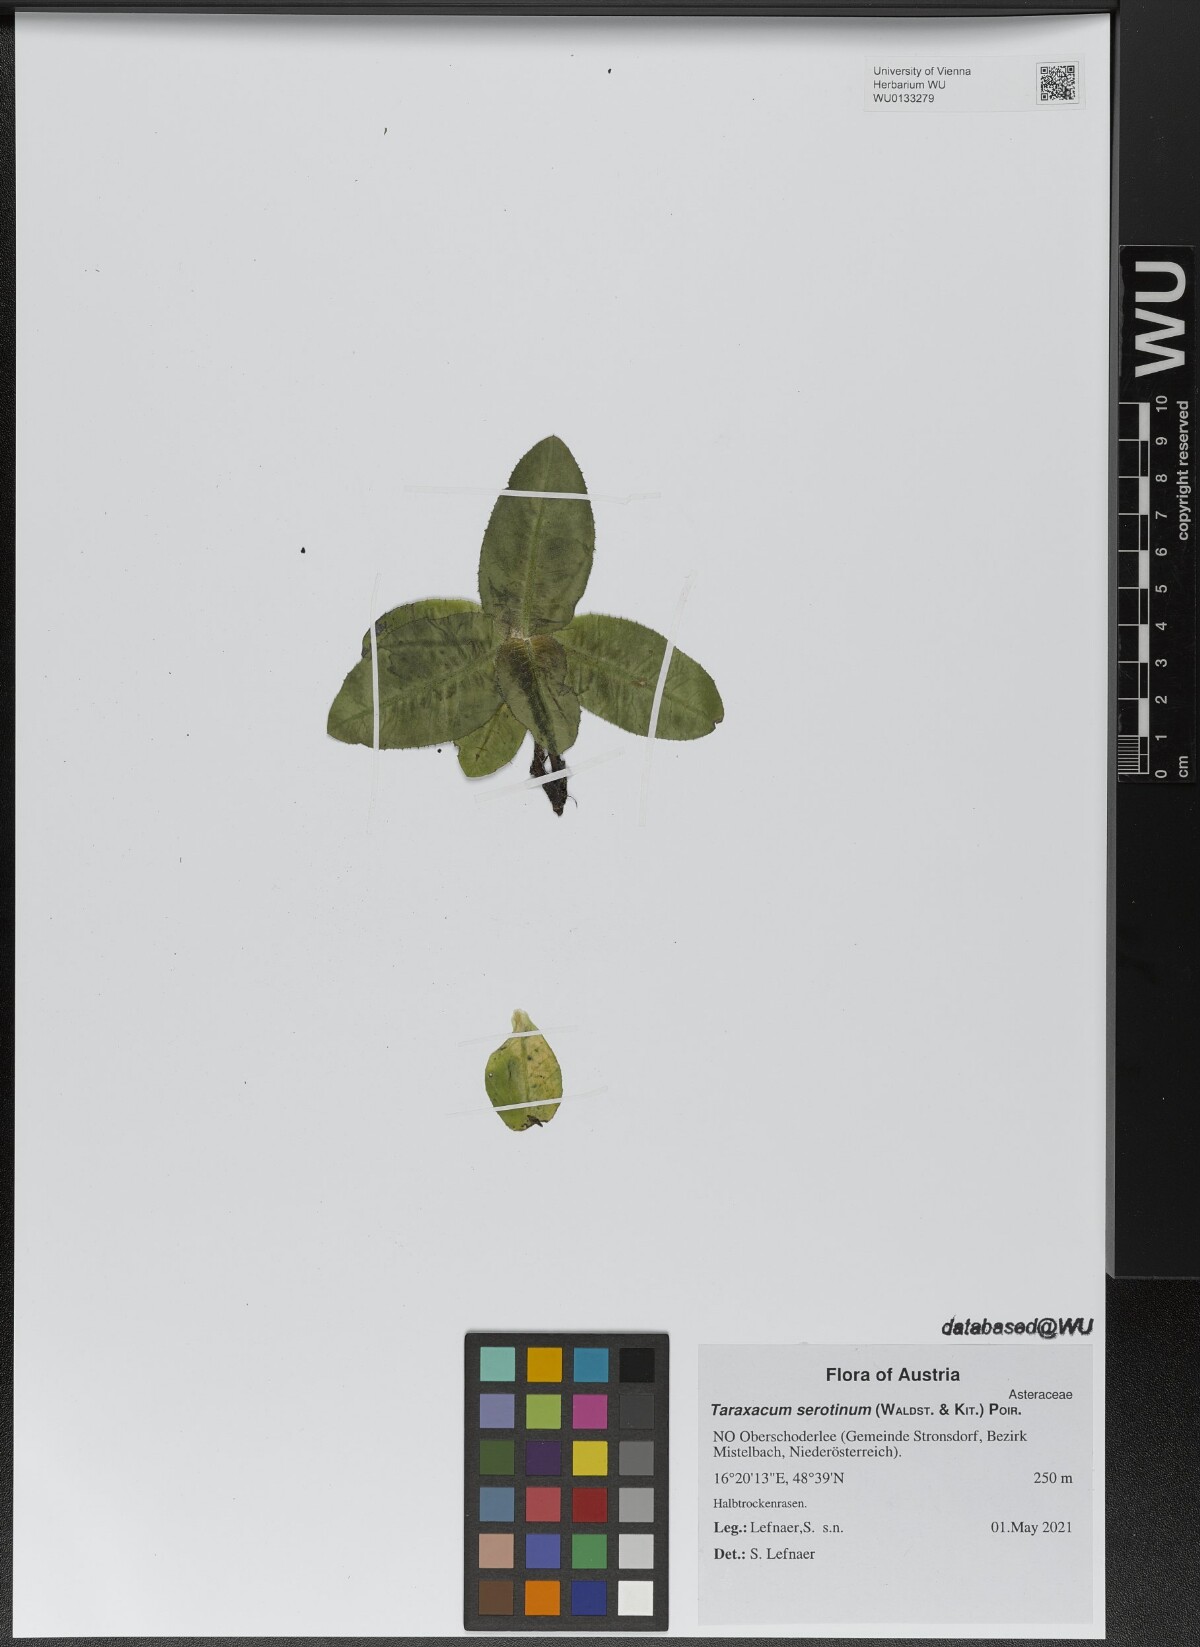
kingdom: Plantae
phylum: Tracheophyta
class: Magnoliopsida
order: Asterales
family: Asteraceae
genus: Taraxacum
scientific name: Taraxacum serotinum
